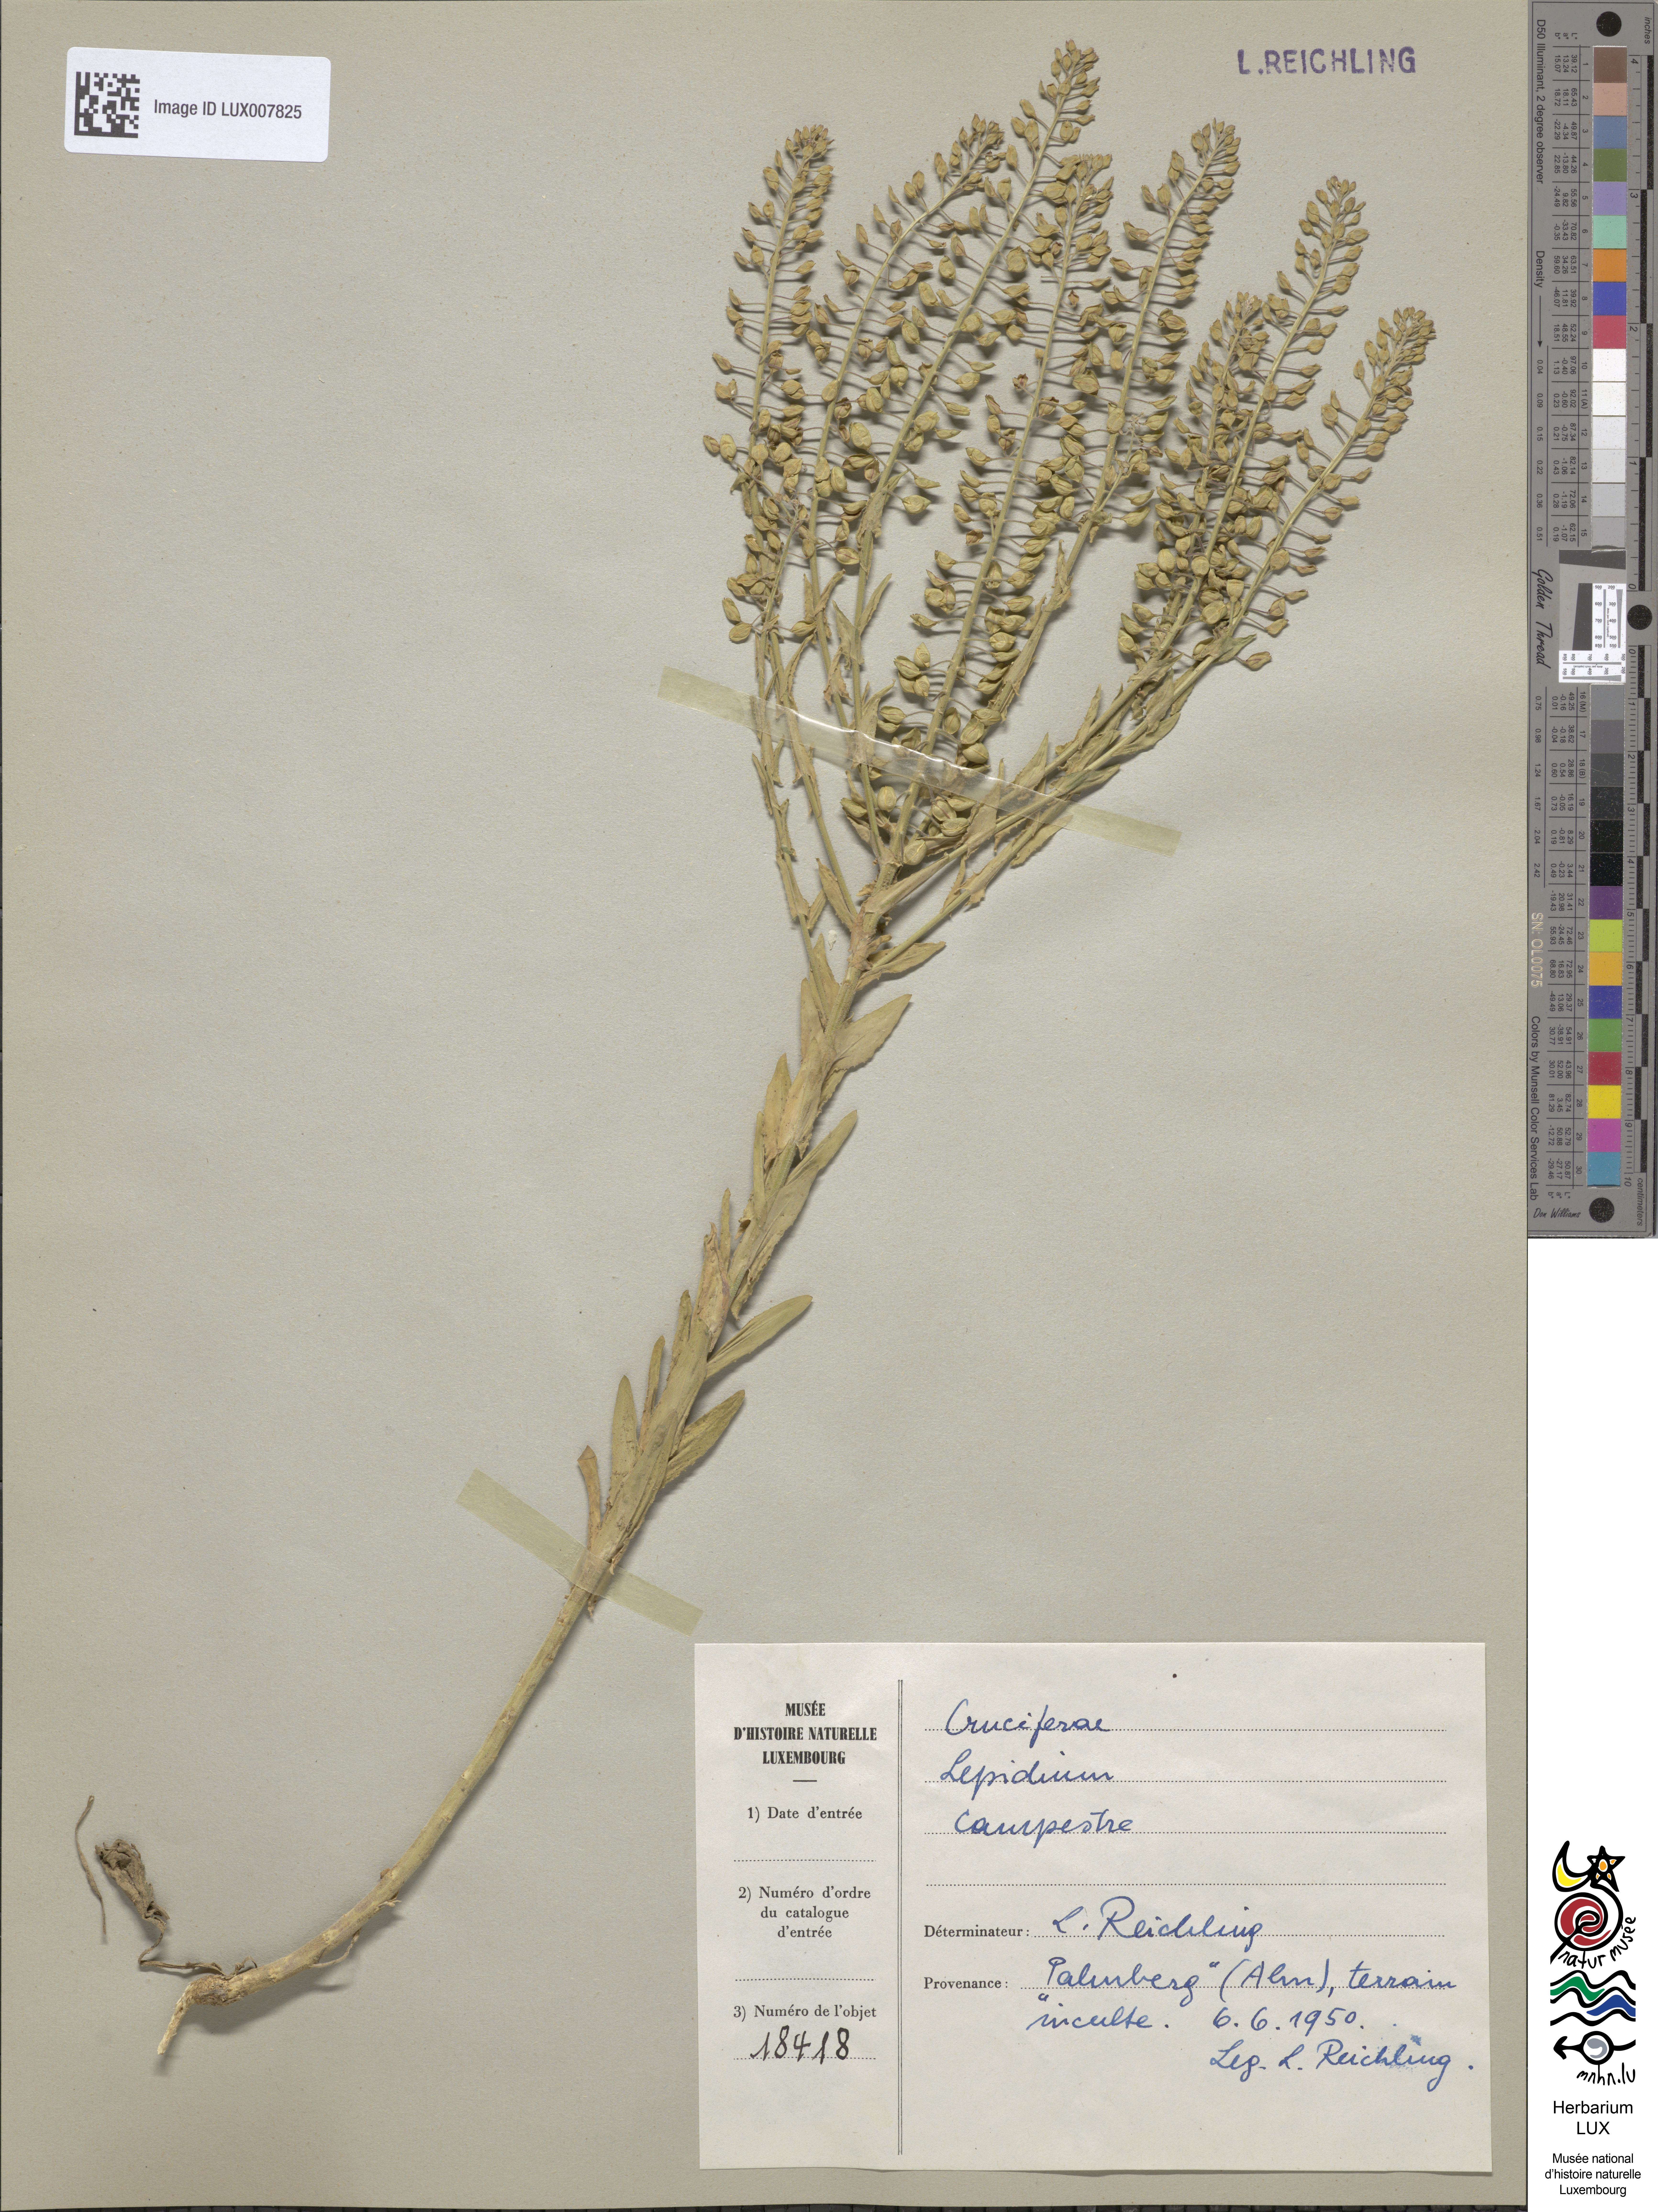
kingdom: Plantae
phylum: Tracheophyta
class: Magnoliopsida
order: Brassicales
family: Brassicaceae
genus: Lepidium
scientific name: Lepidium campestre
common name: Field pepperwort
